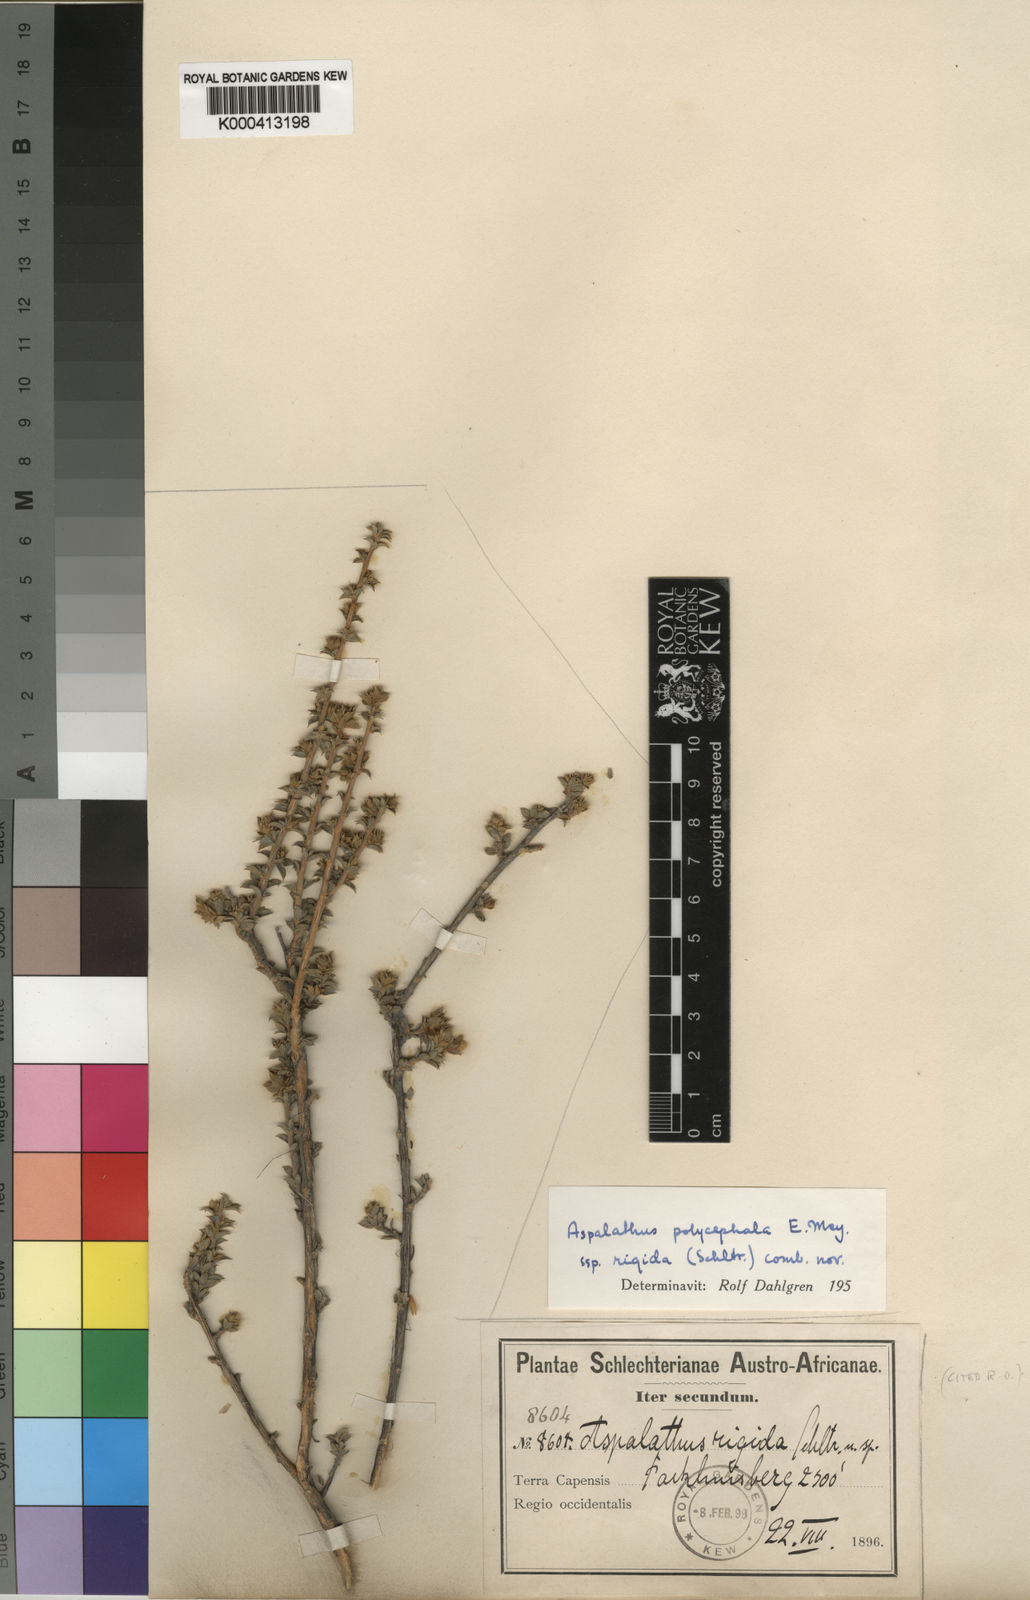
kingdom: Plantae
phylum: Tracheophyta
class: Magnoliopsida
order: Fabales
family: Fabaceae
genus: Aspalathus
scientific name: Aspalathus polycephala
